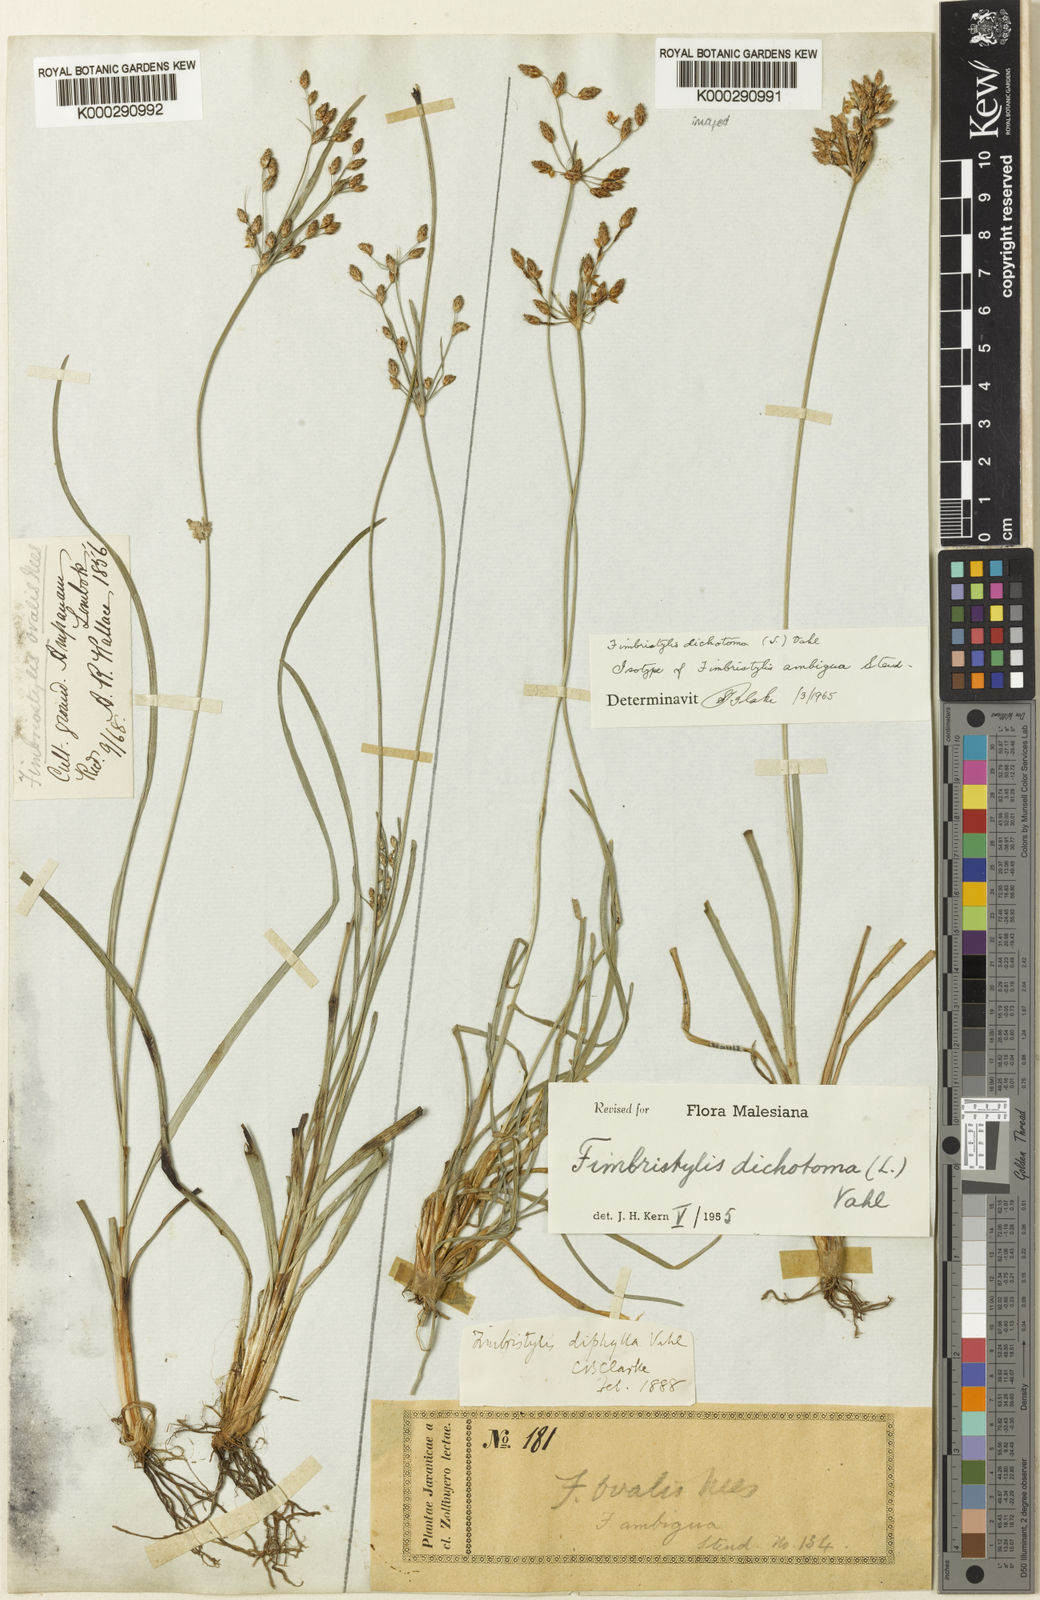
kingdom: Plantae
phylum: Tracheophyta
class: Liliopsida
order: Poales
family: Cyperaceae
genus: Fimbristylis
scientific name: Fimbristylis dichotoma
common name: Forked fimbry
